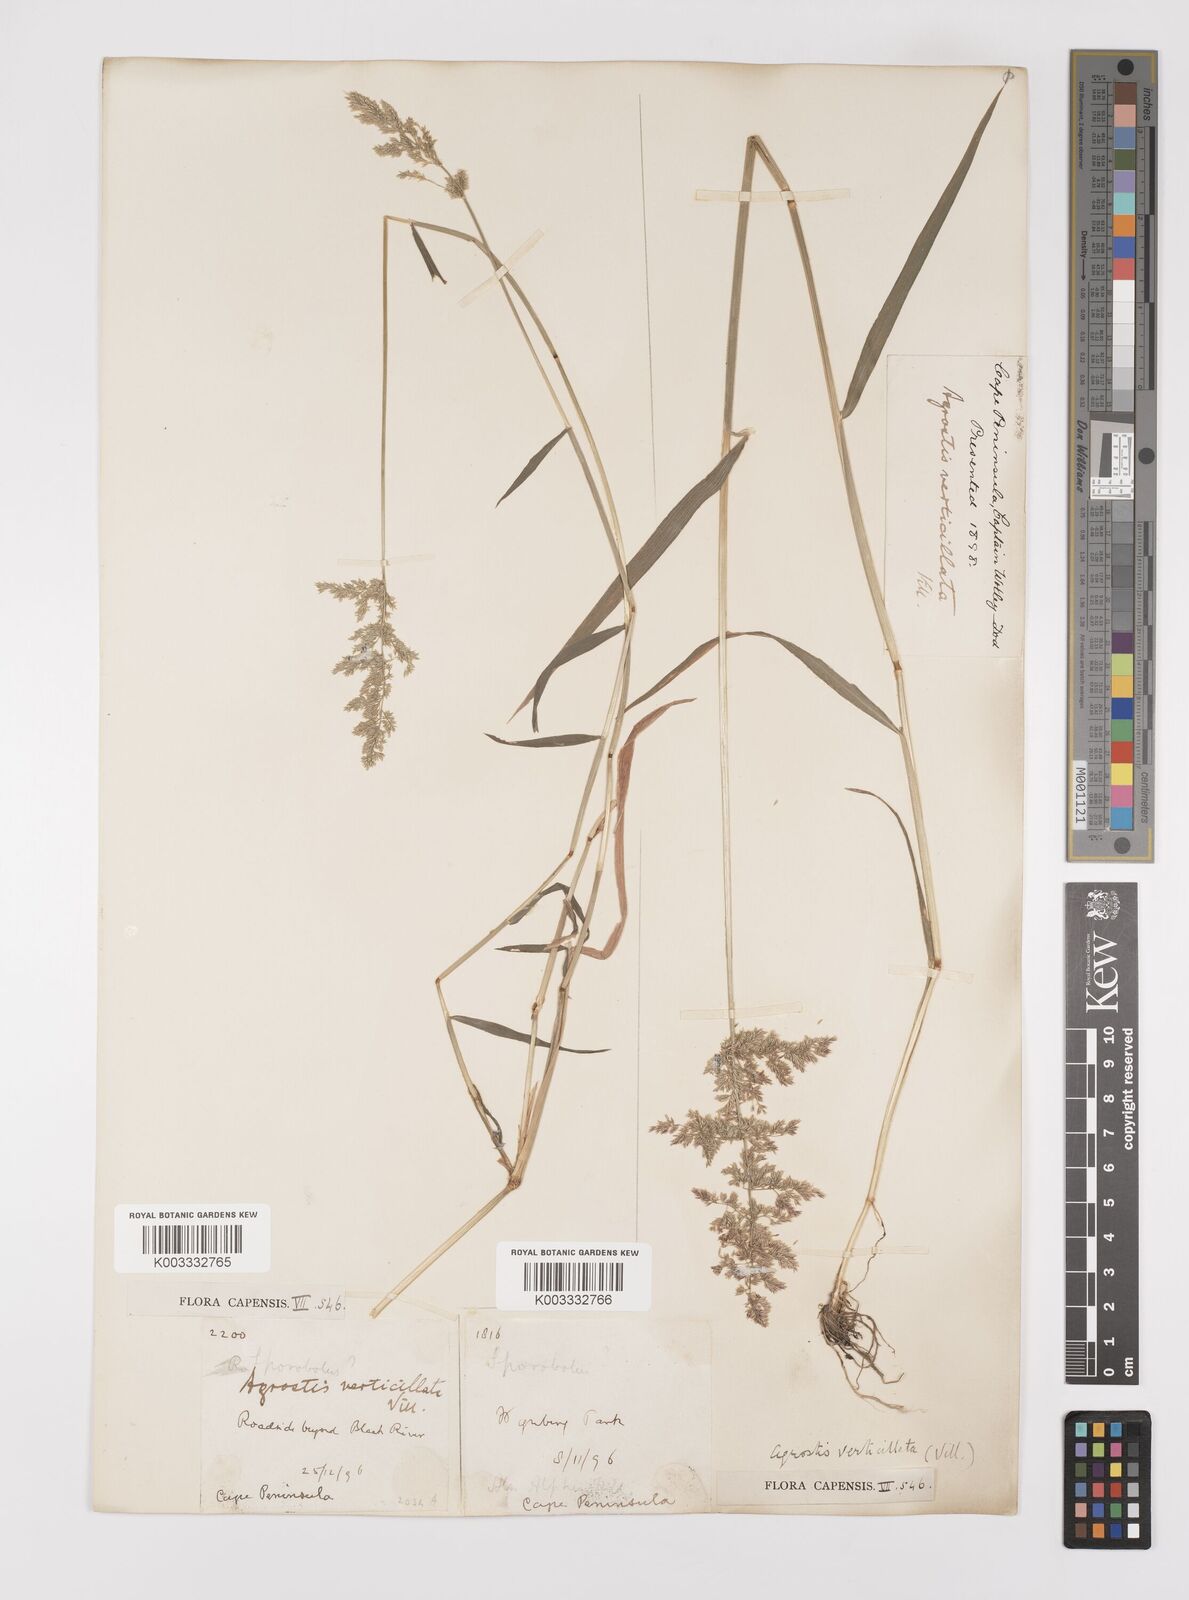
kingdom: Plantae
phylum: Tracheophyta
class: Liliopsida
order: Poales
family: Poaceae
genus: Polypogon
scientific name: Polypogon viridis
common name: Water bent
